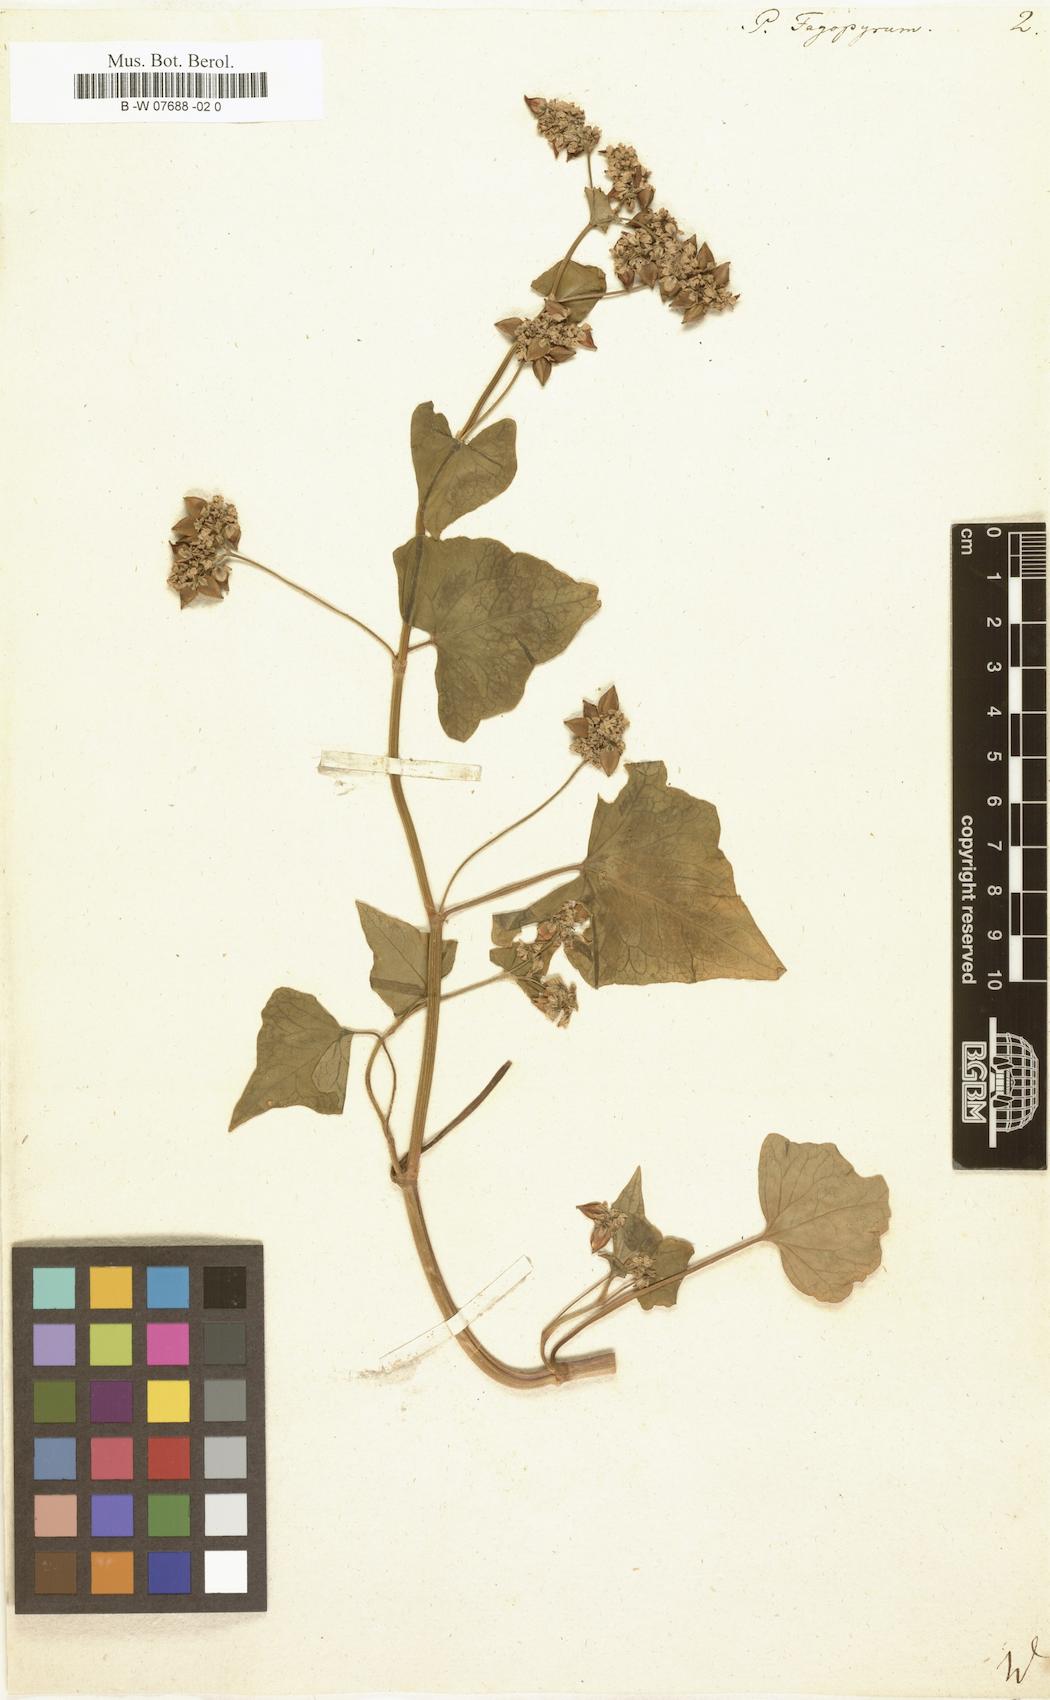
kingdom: Plantae
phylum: Tracheophyta
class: Magnoliopsida
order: Caryophyllales
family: Polygonaceae
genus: Fagopyrum
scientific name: Fagopyrum
